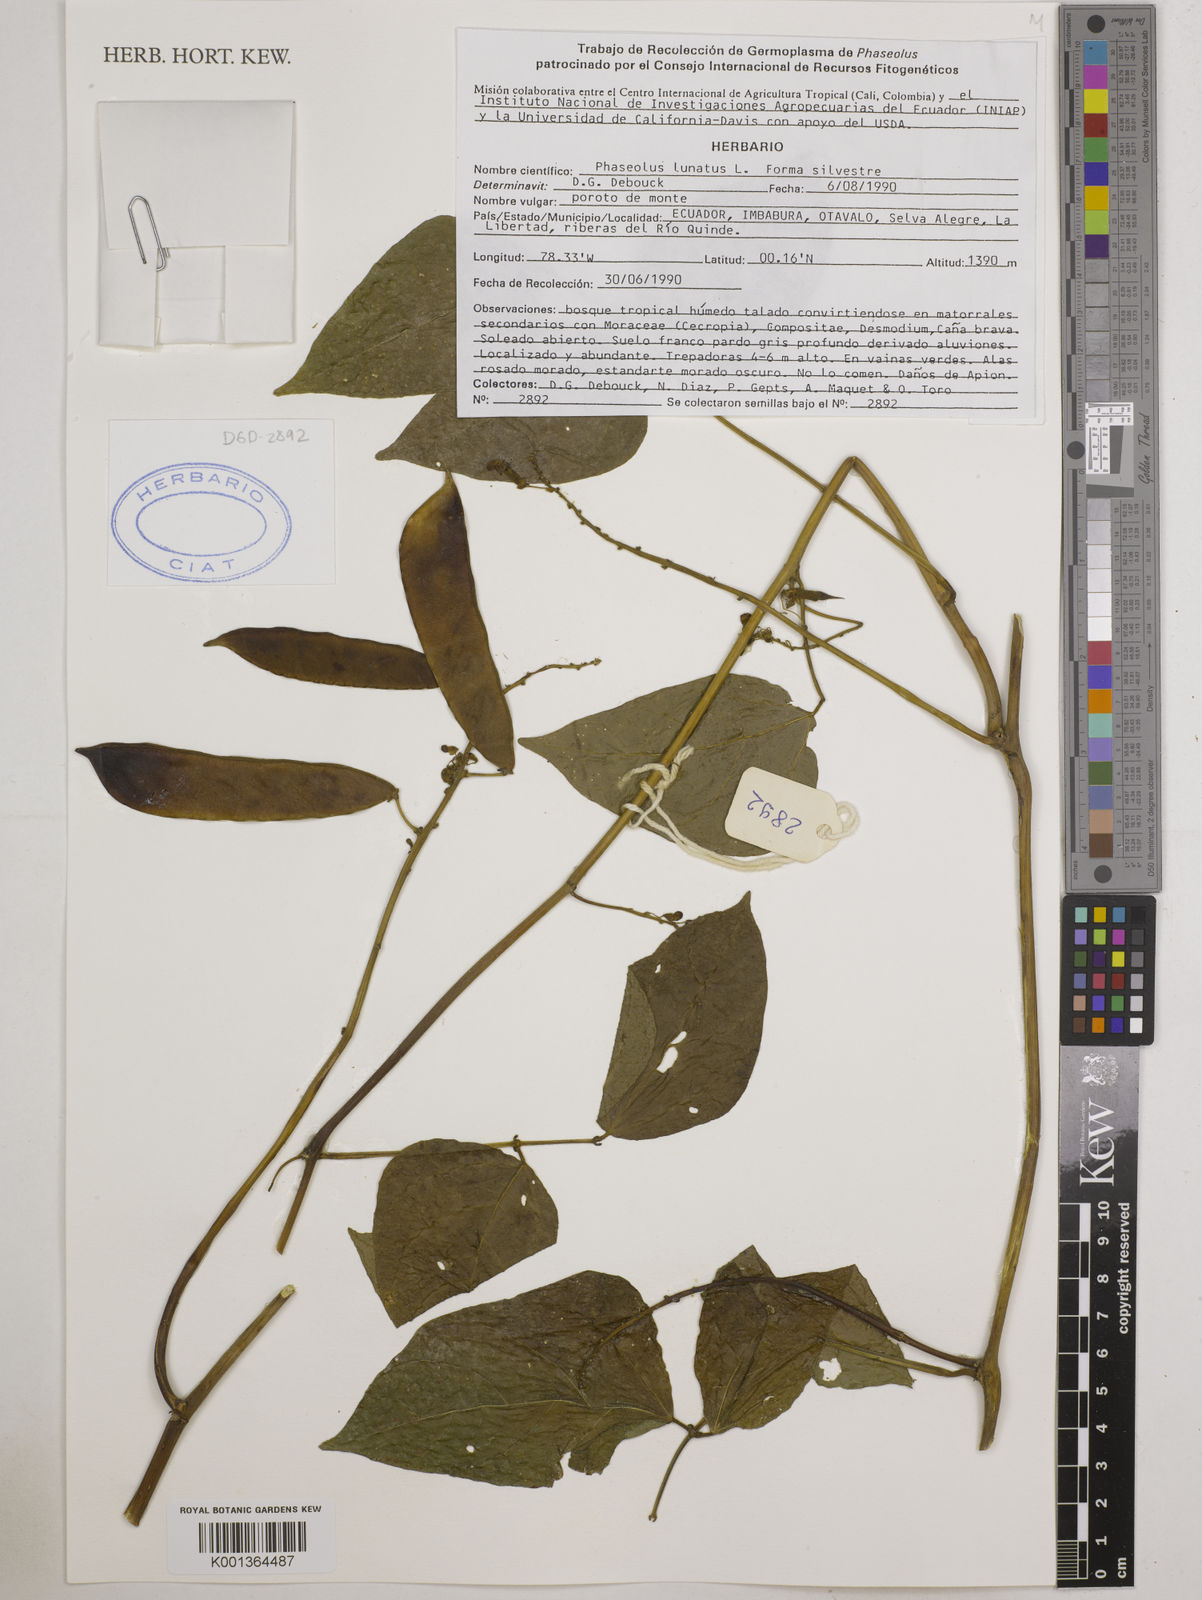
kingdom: Plantae
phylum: Tracheophyta
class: Magnoliopsida
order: Fabales
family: Fabaceae
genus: Phaseolus
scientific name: Phaseolus lunatus
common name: Sieva bean
